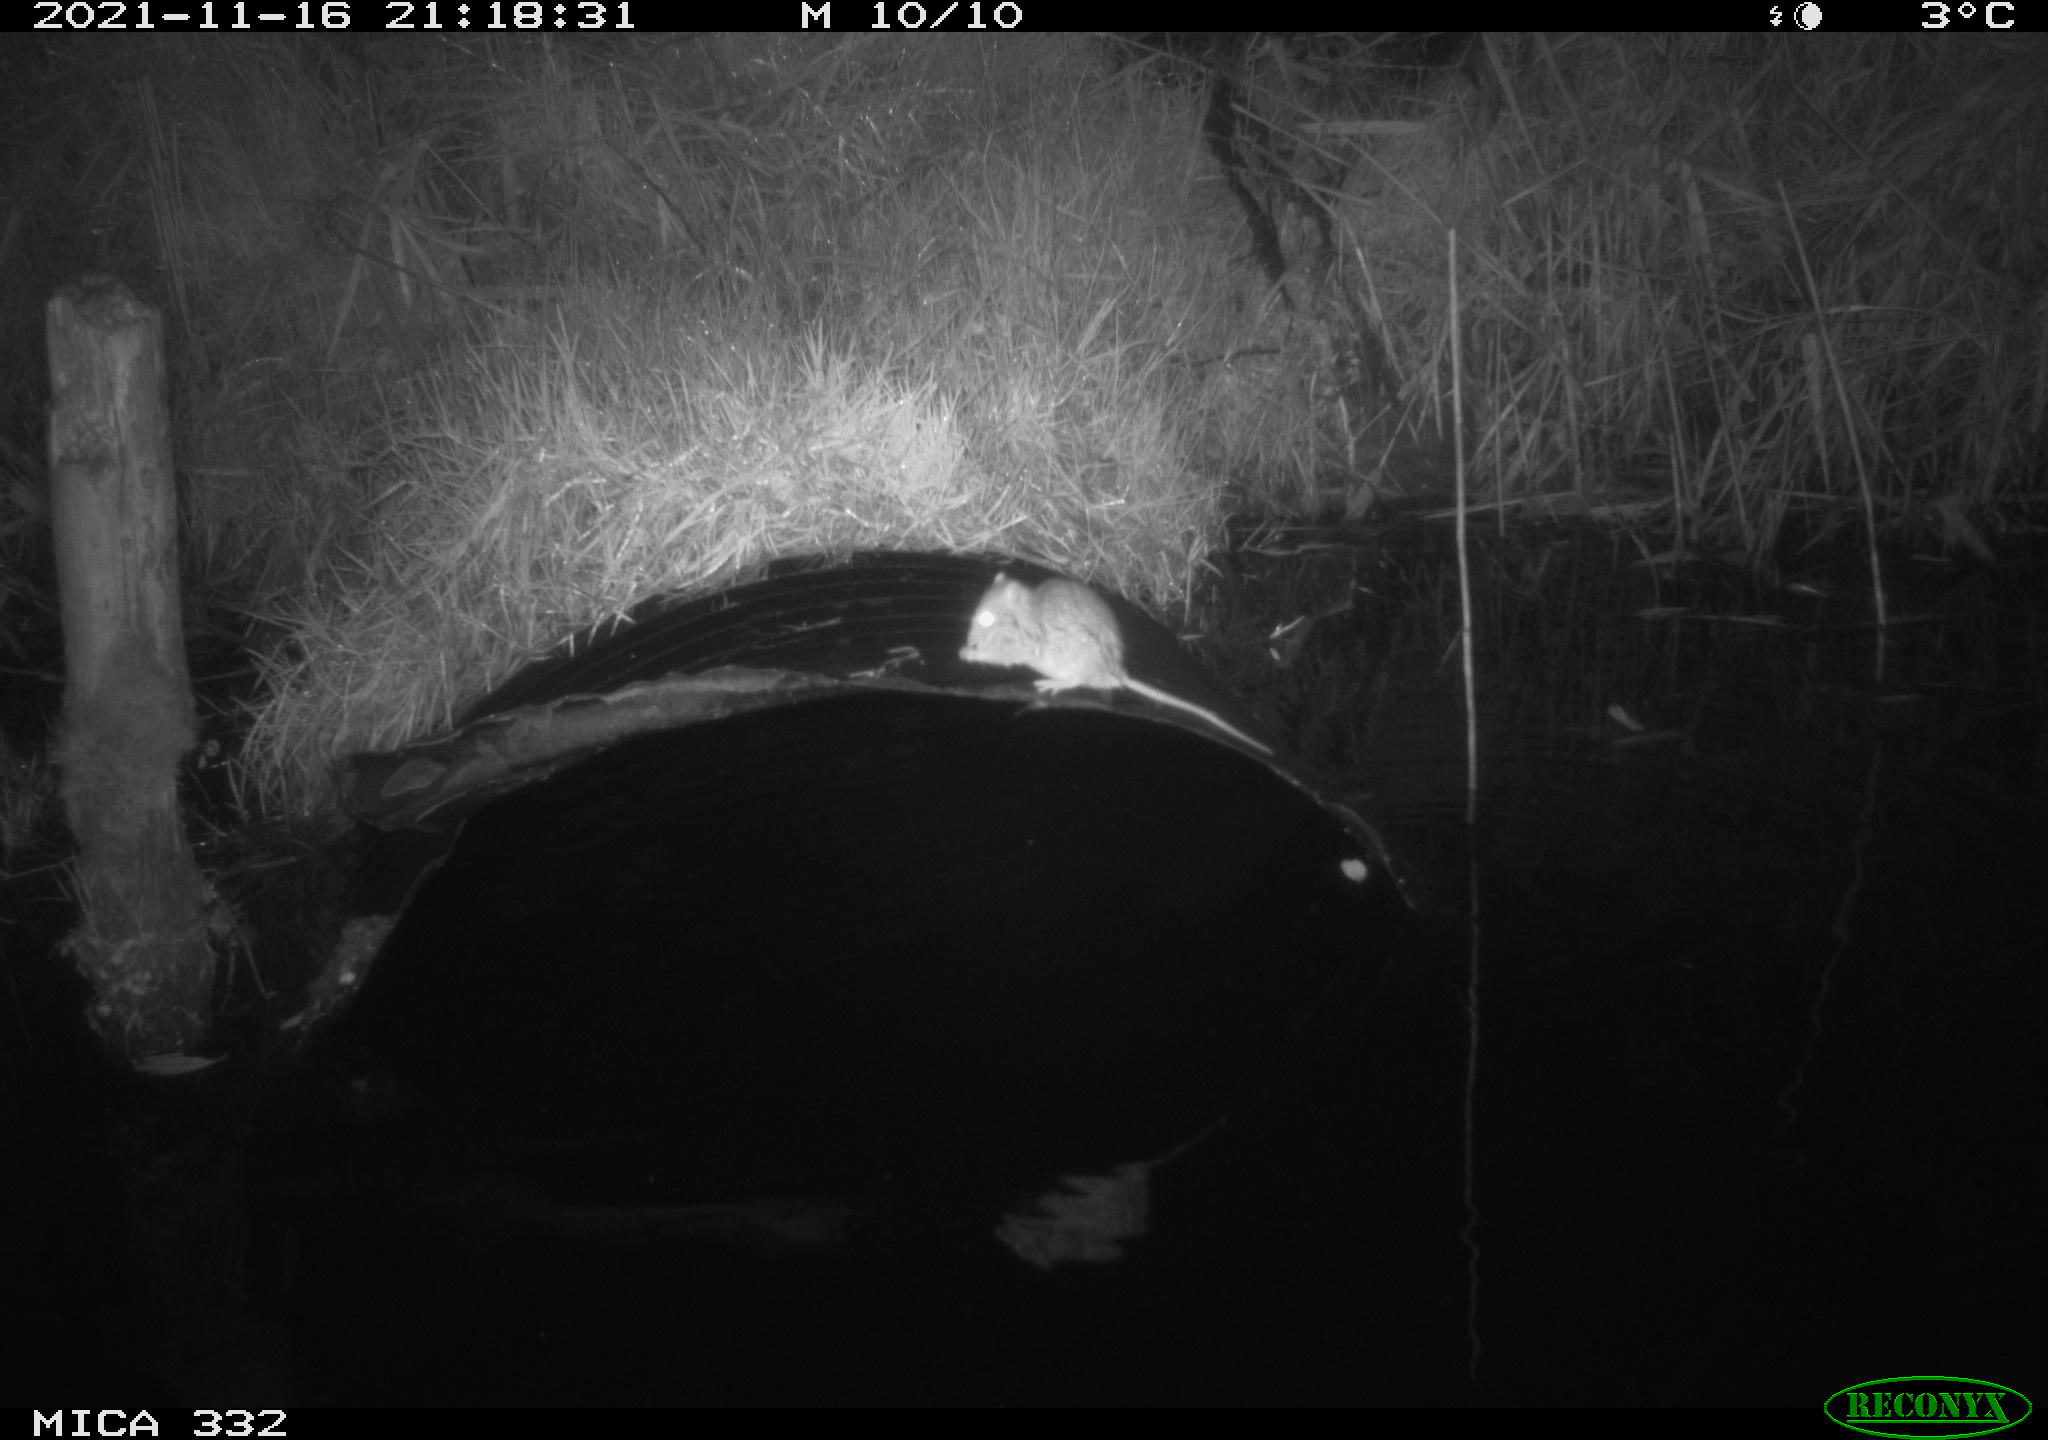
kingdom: Animalia
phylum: Chordata
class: Mammalia
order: Rodentia
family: Muridae
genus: Rattus
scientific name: Rattus norvegicus
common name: Brown rat
